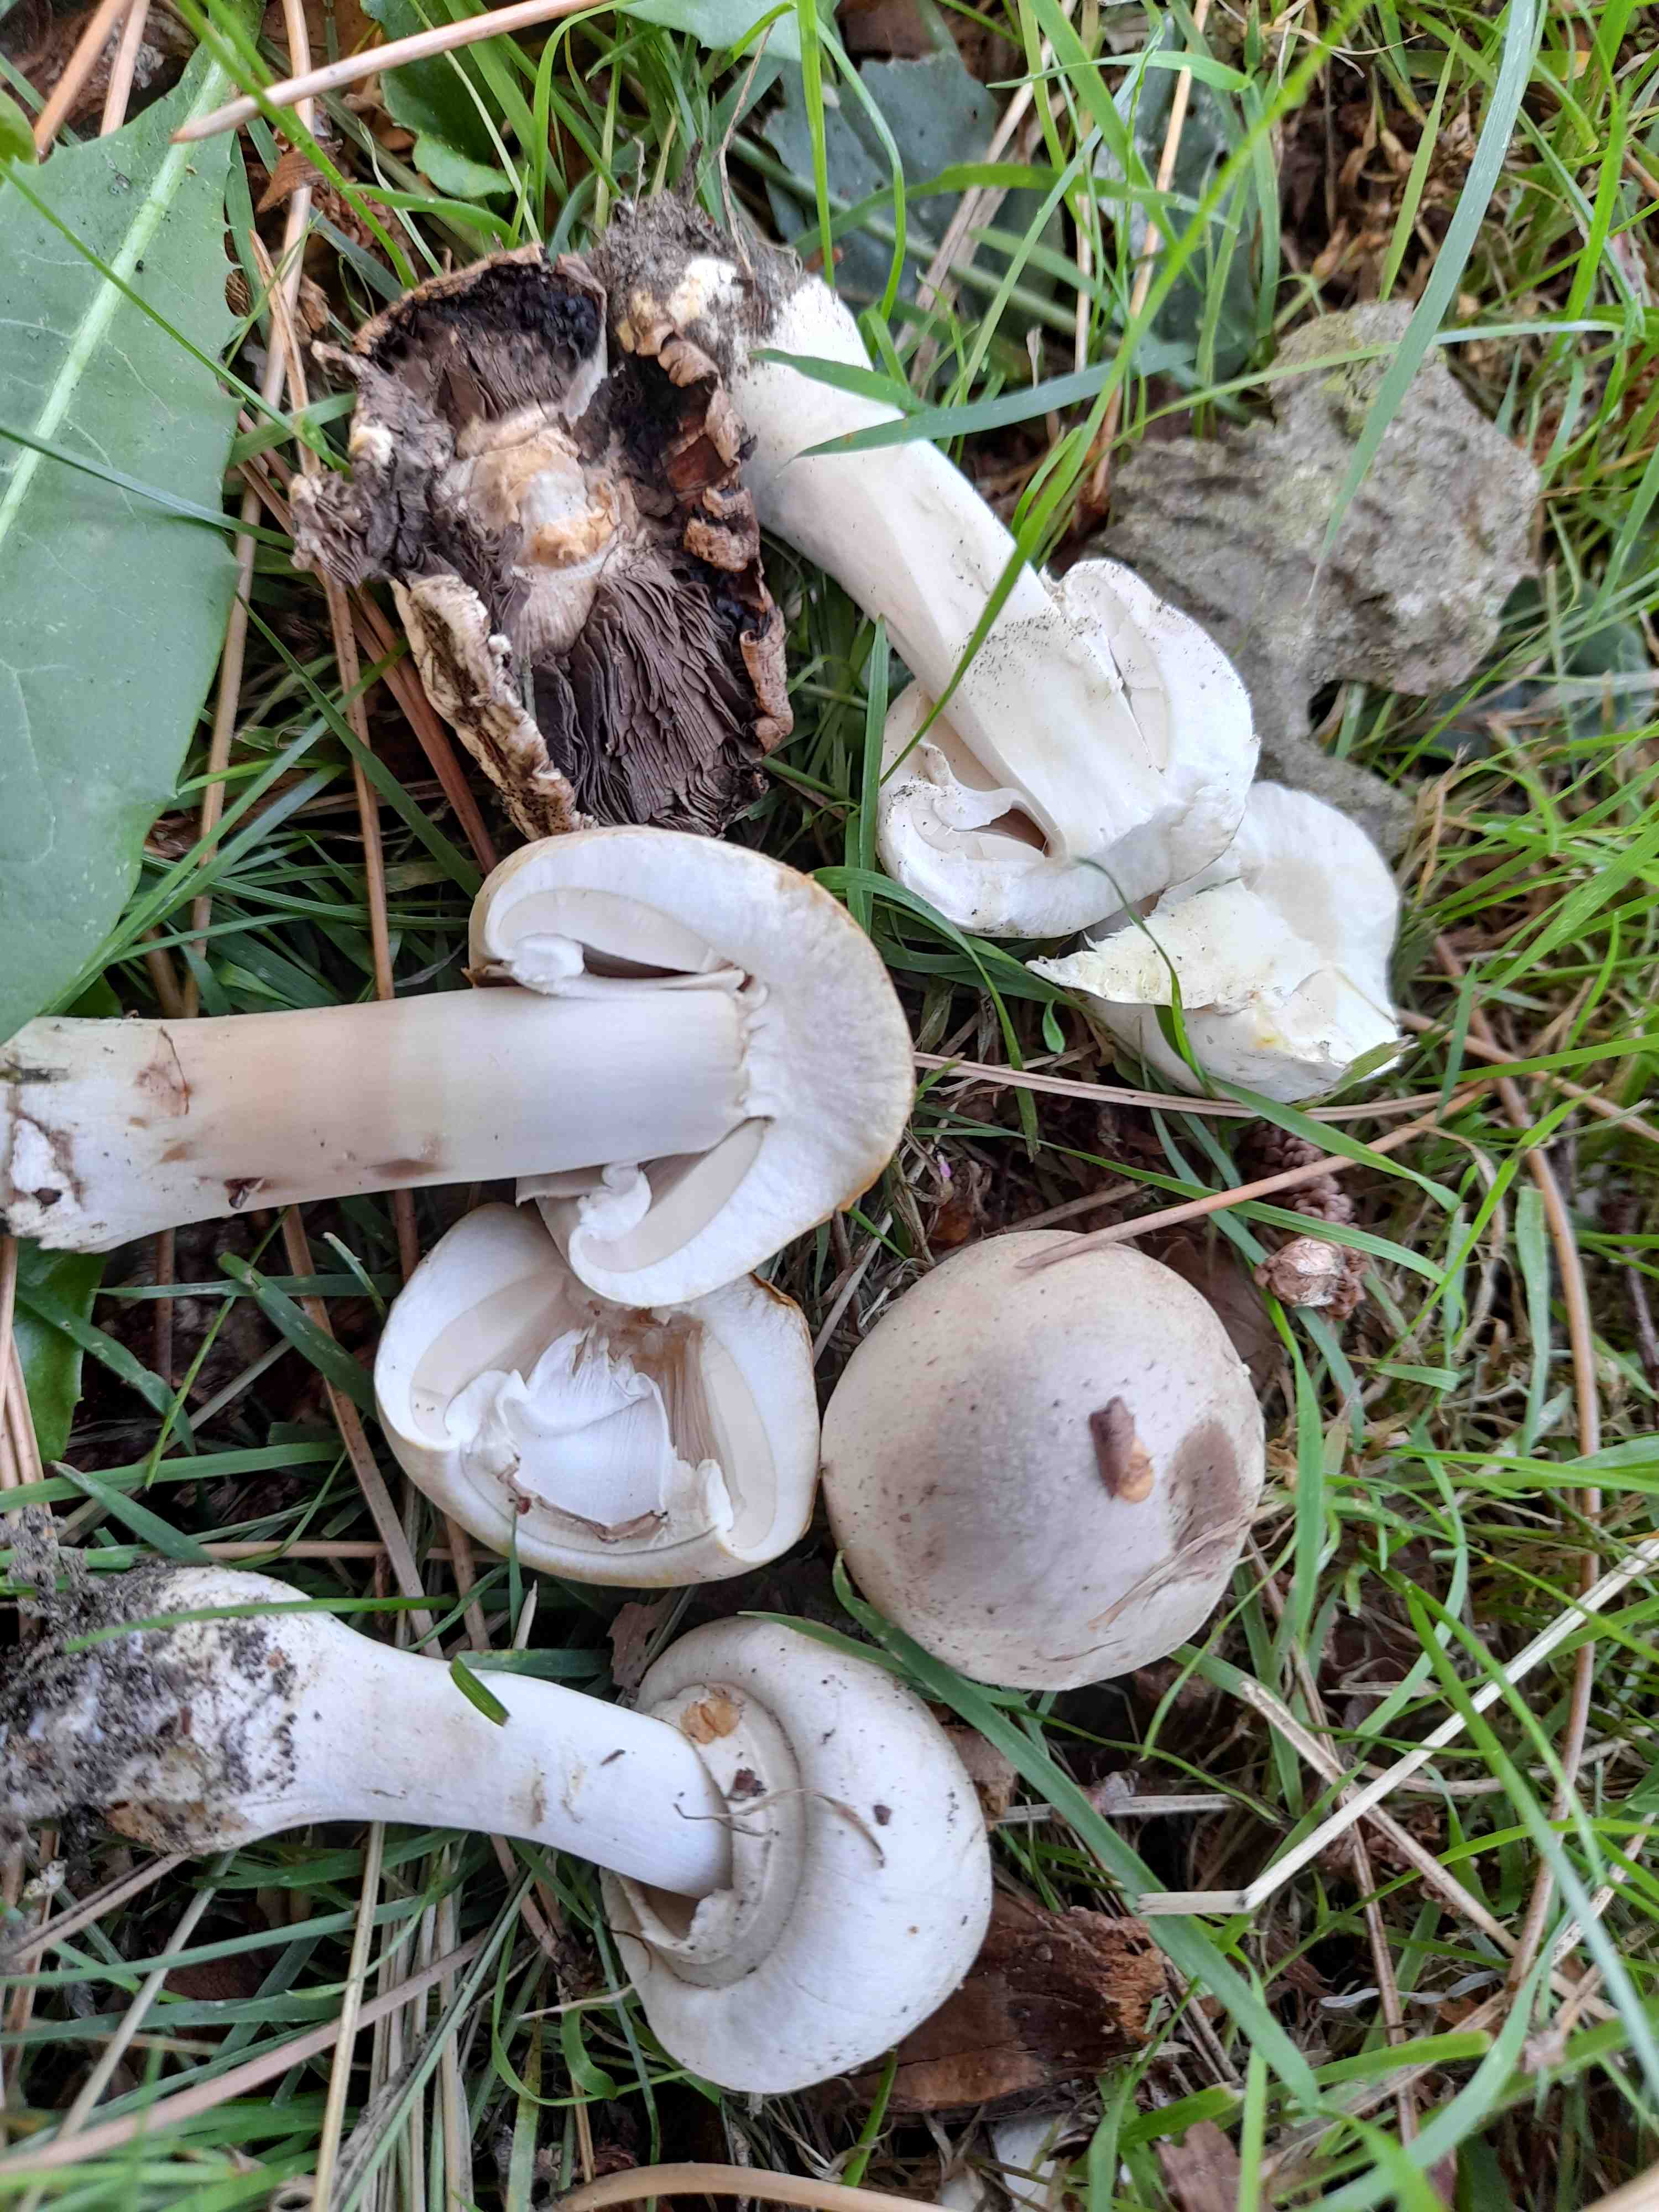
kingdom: Fungi
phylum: Basidiomycota
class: Agaricomycetes
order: Agaricales
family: Agaricaceae
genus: Agaricus
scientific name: Agaricus xanthodermus
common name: karbol-champignon
